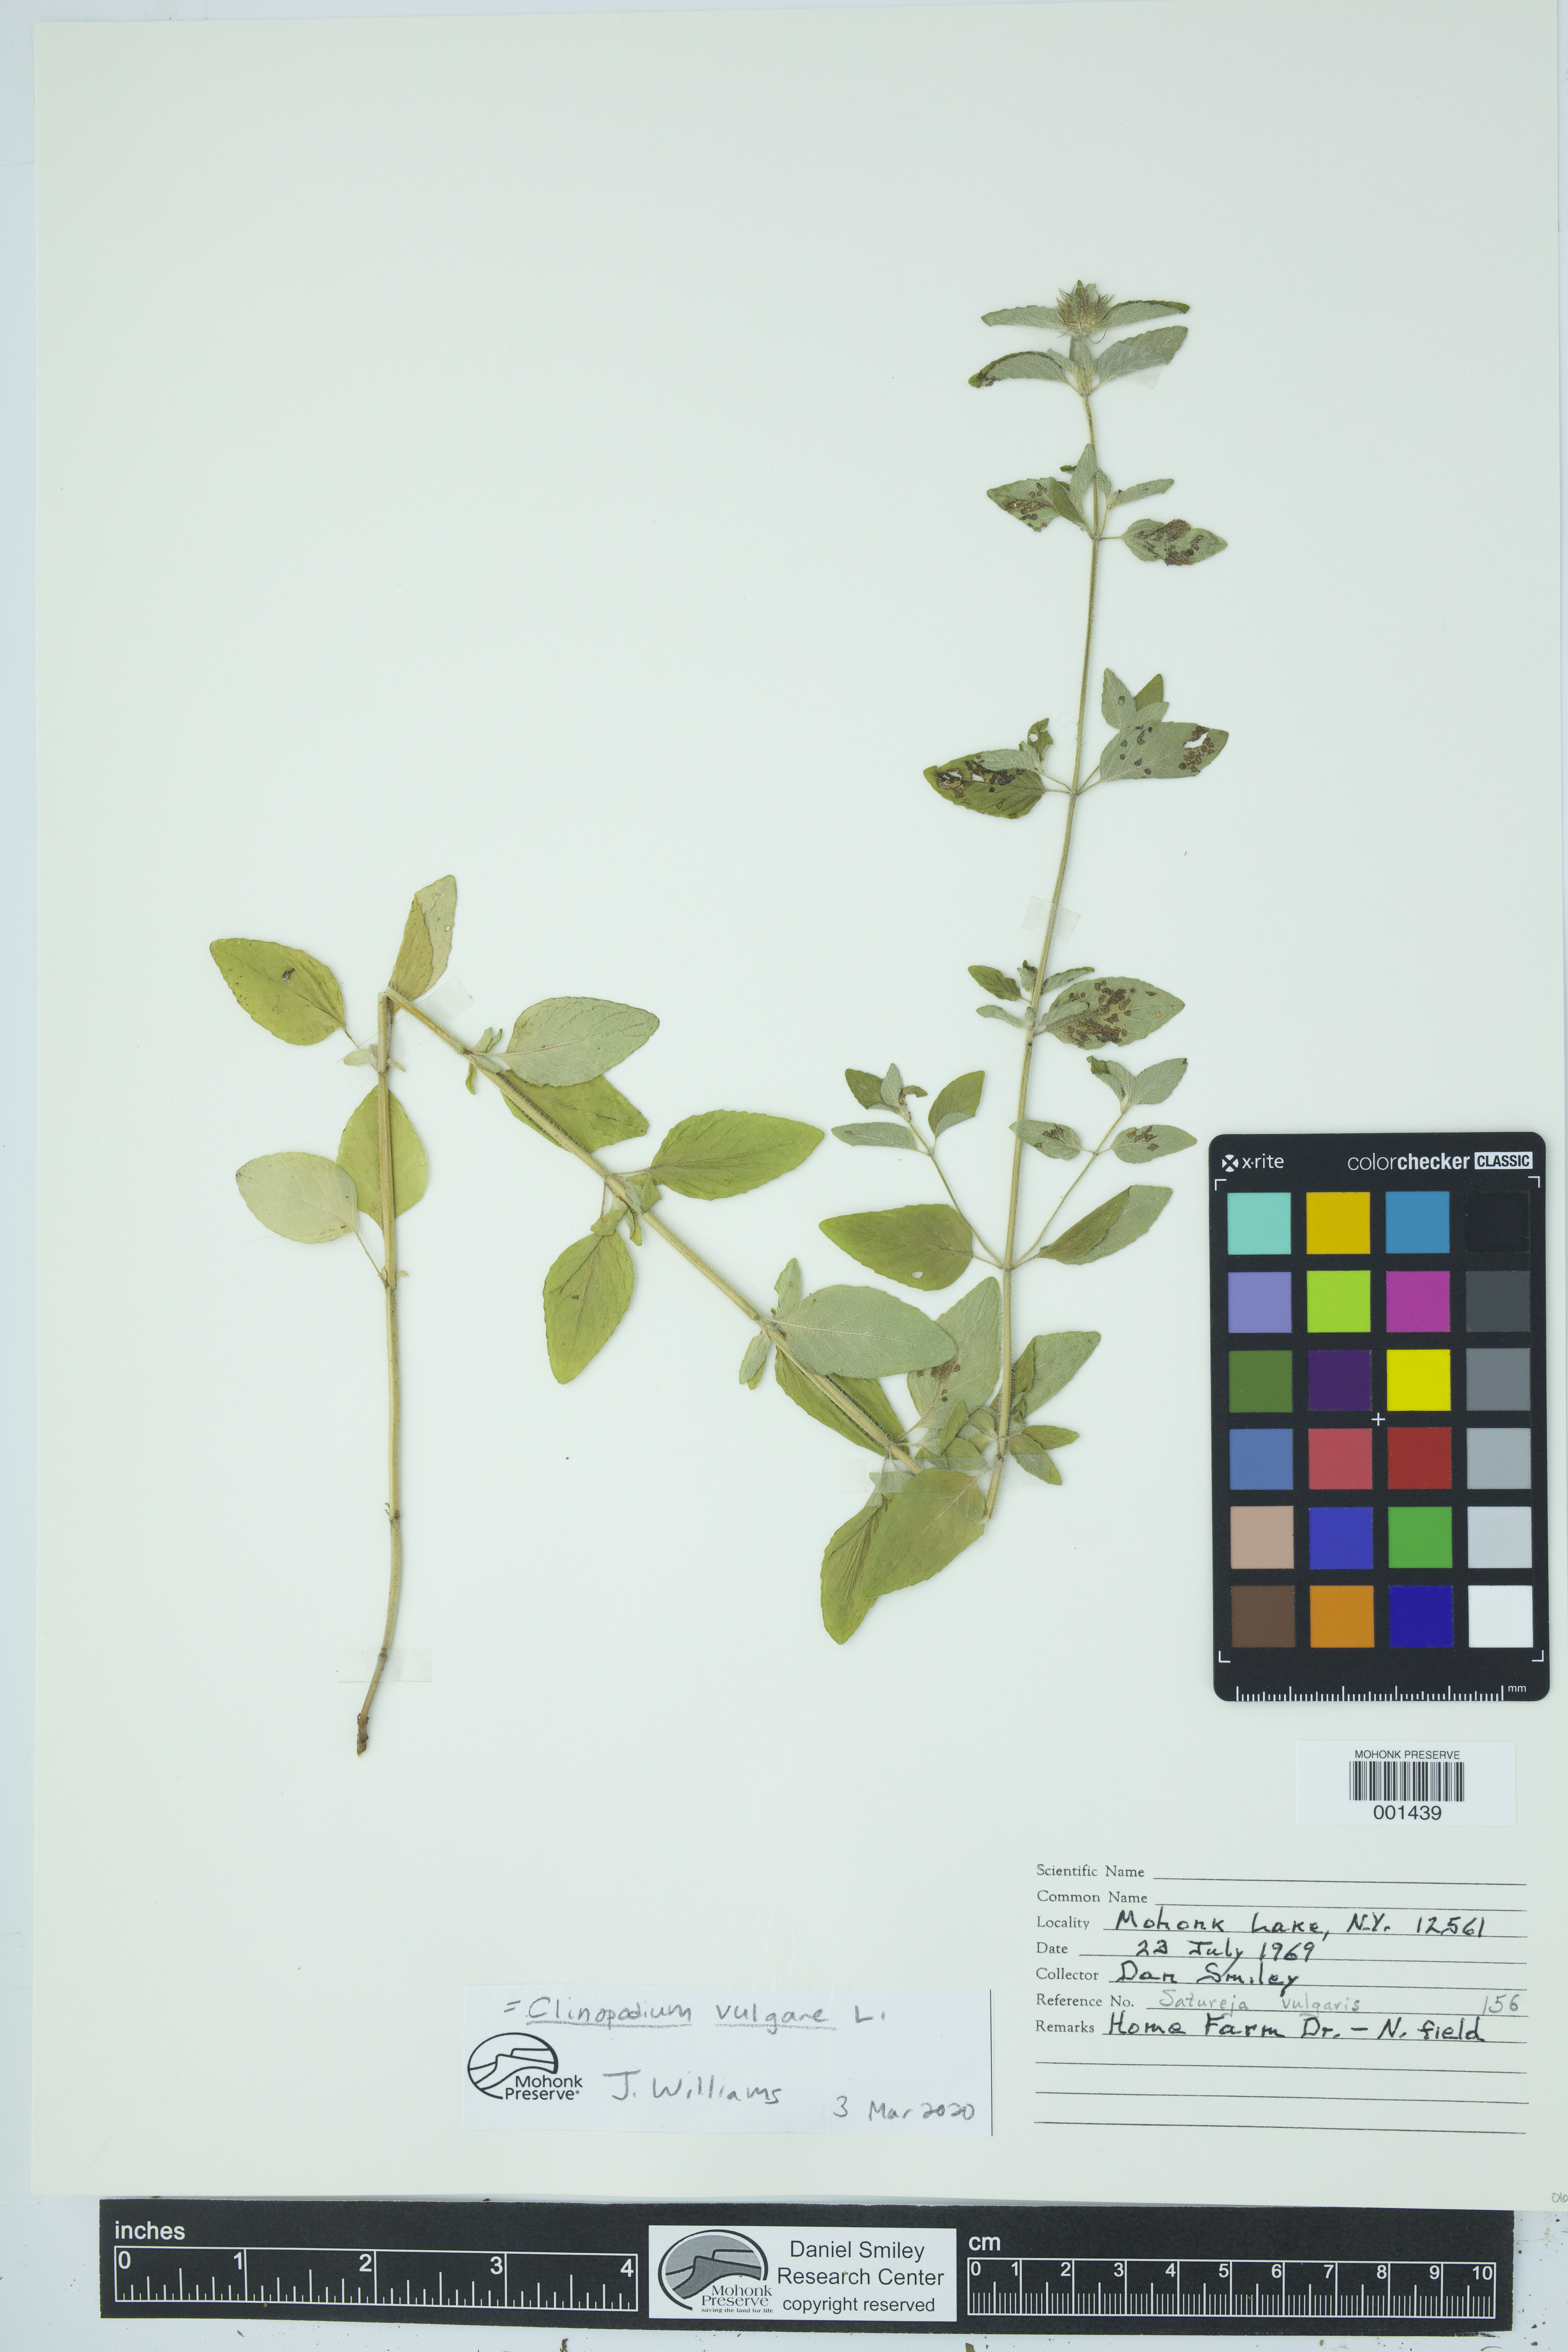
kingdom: Plantae
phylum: Tracheophyta
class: Magnoliopsida
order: Lamiales
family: Lamiaceae
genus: Clinopodium
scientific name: Clinopodium vulgare
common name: Wild basil
